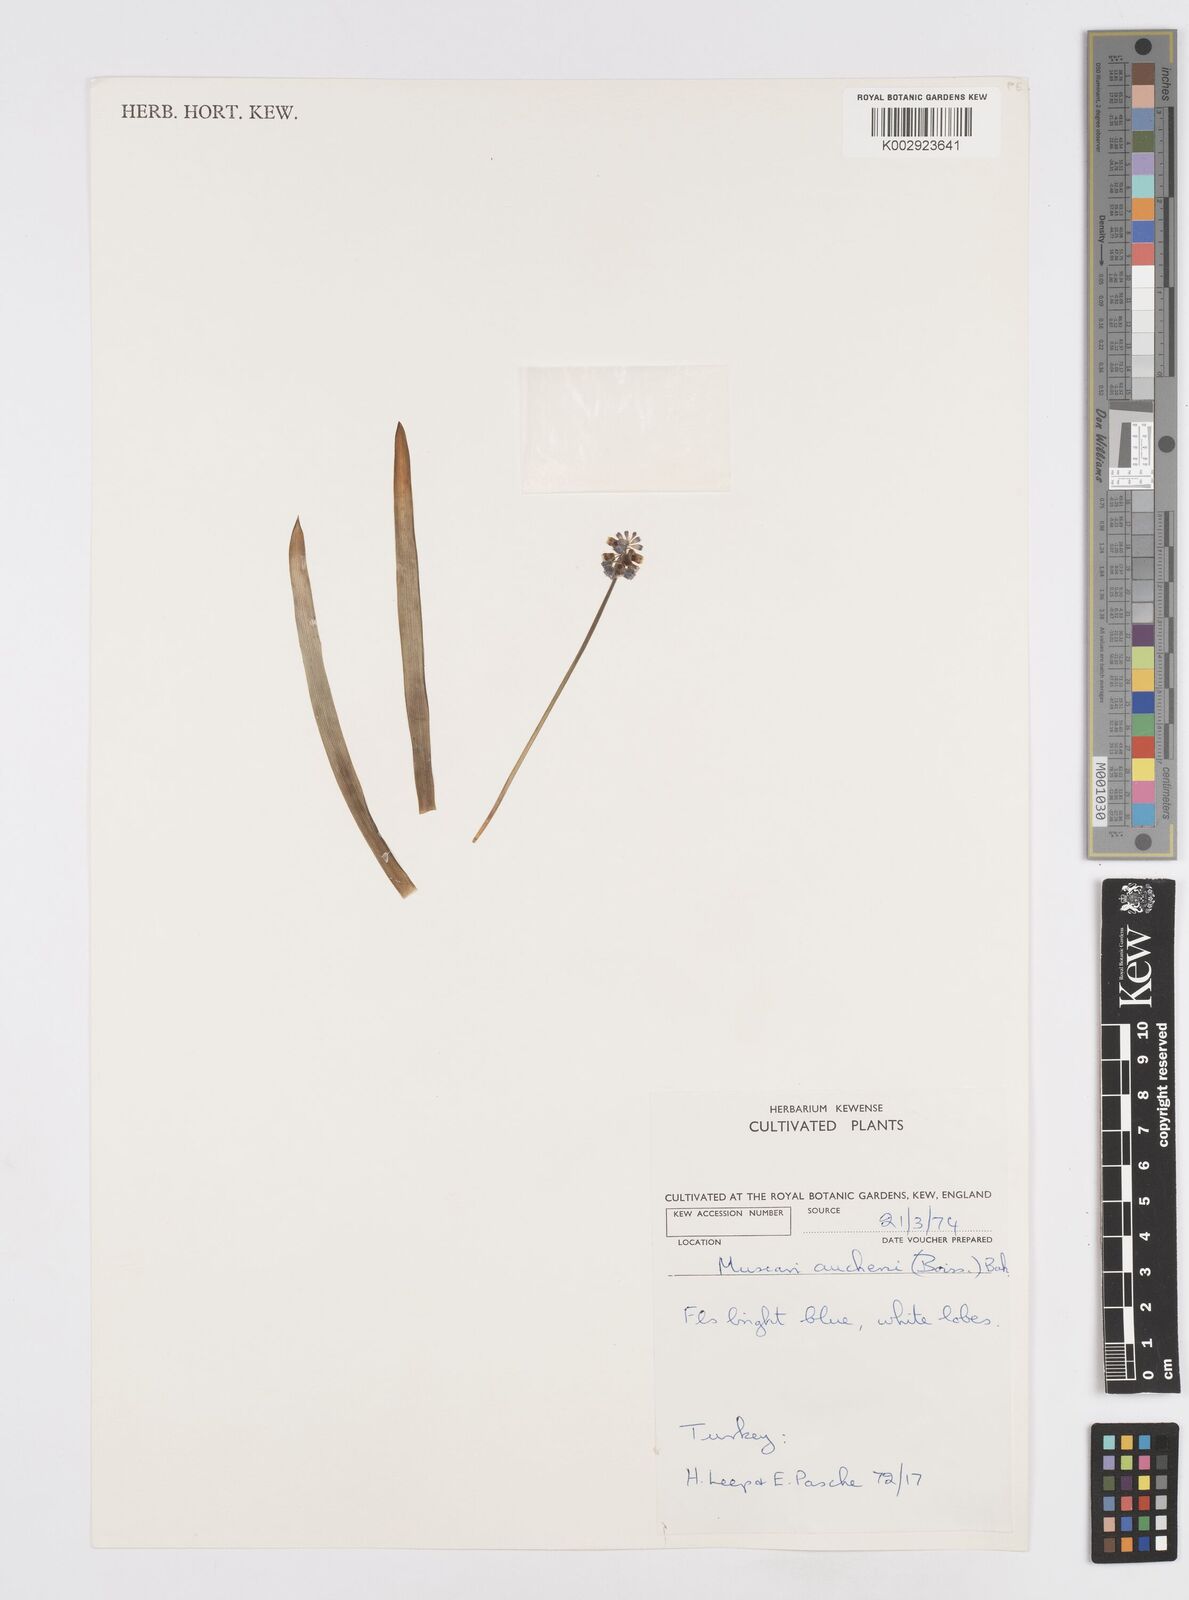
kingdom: Plantae
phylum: Tracheophyta
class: Liliopsida
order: Asparagales
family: Asparagaceae
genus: Muscari
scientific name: Muscari aucheri
